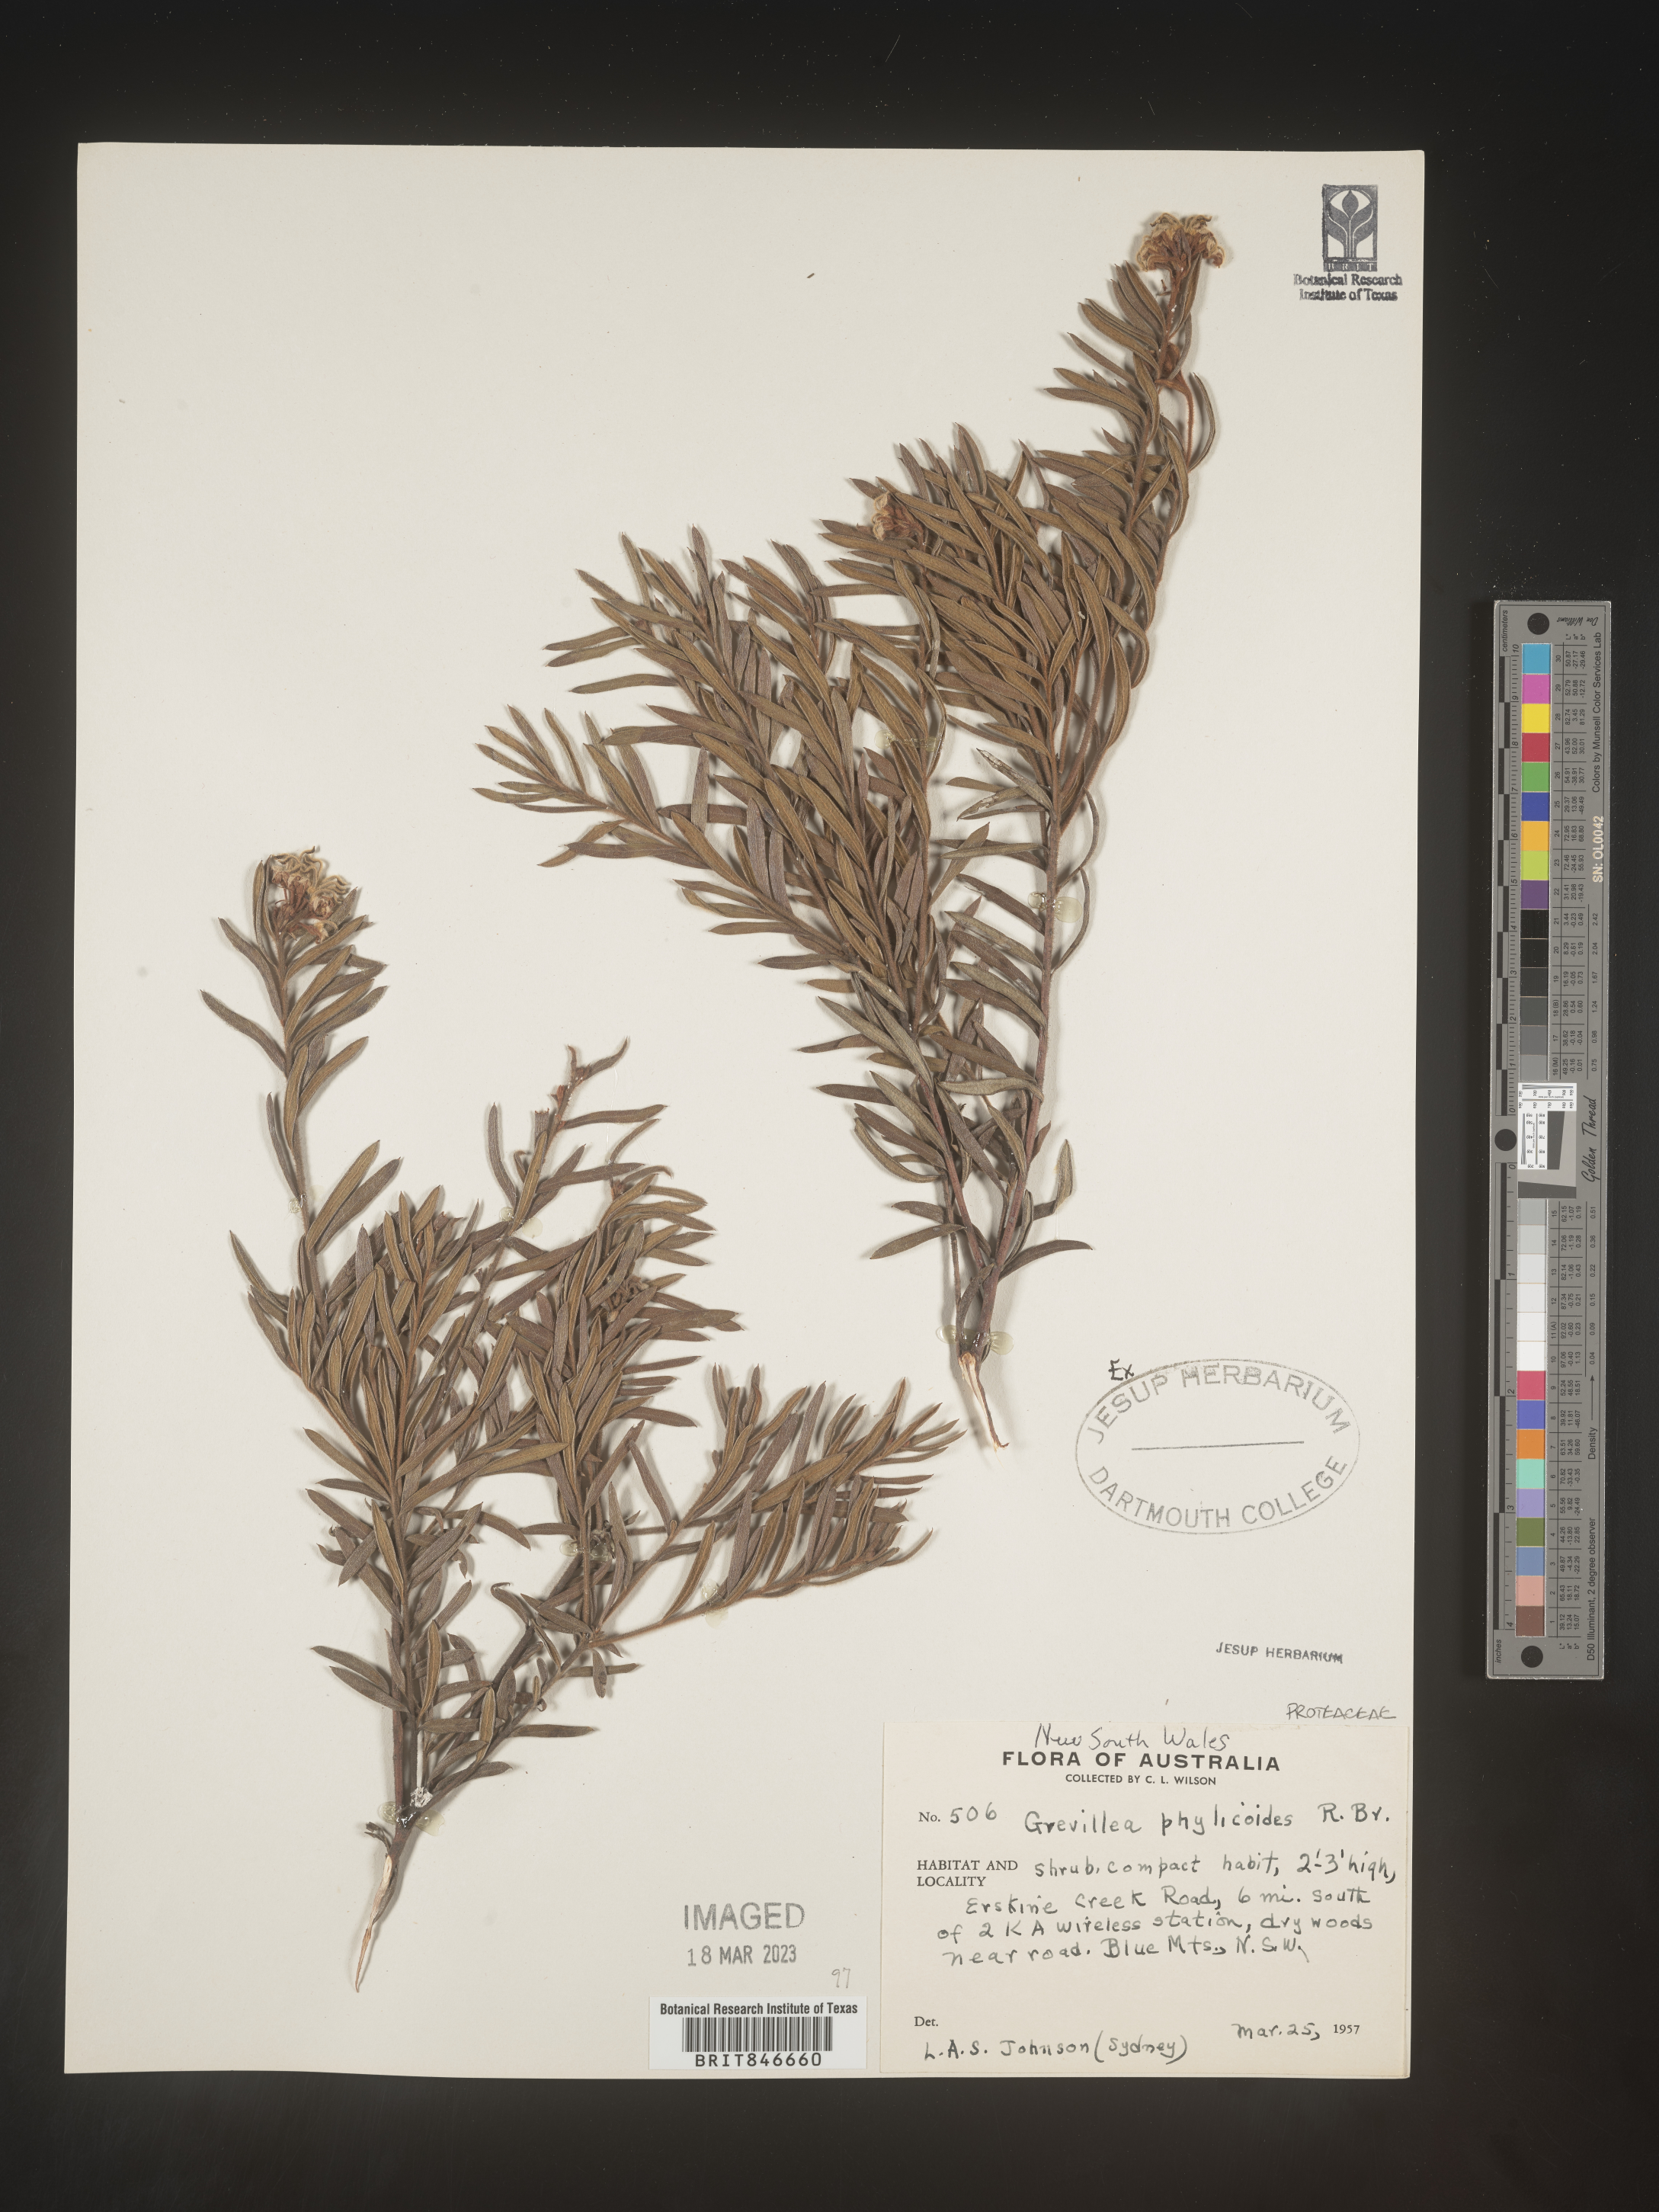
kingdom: Plantae
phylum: Tracheophyta
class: Magnoliopsida
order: Proteales
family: Proteaceae
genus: Grevillea
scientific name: Grevillea
